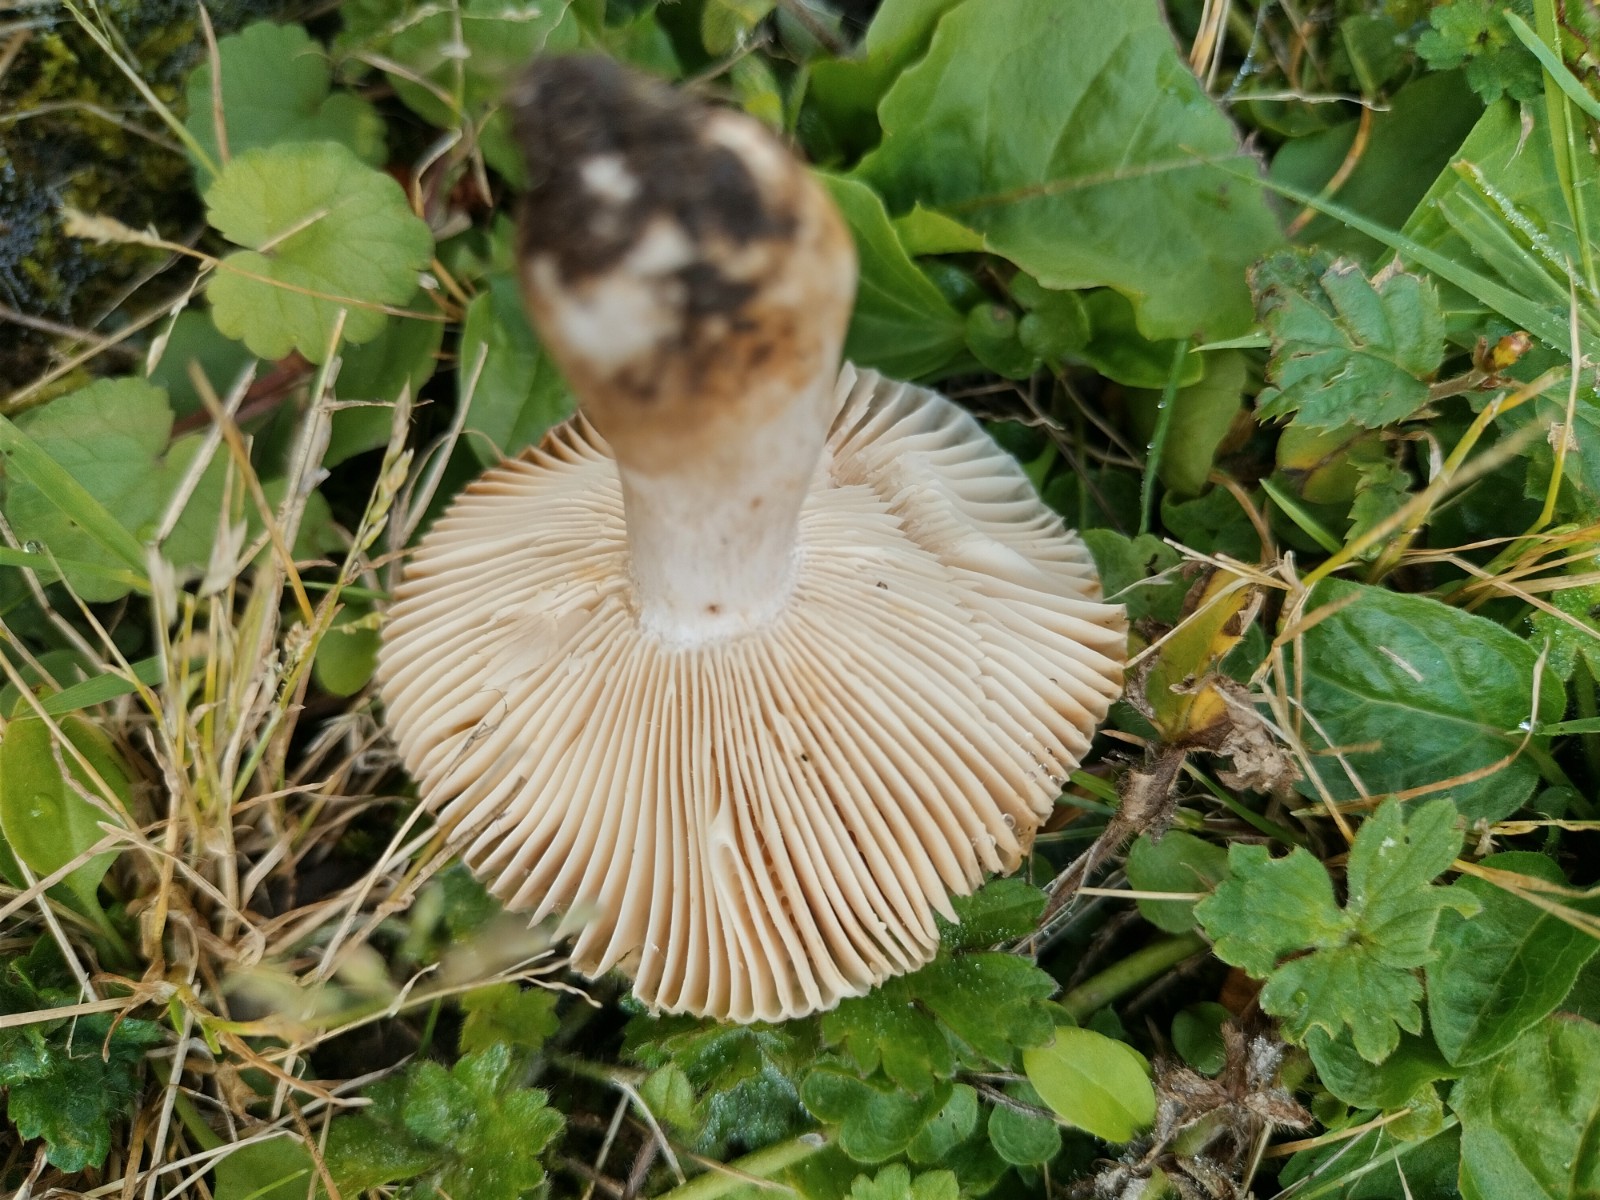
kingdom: Fungi
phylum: Basidiomycota
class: Agaricomycetes
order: Russulales
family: Russulaceae
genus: Russula
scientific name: Russula recondita
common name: mild kam-skørhat
